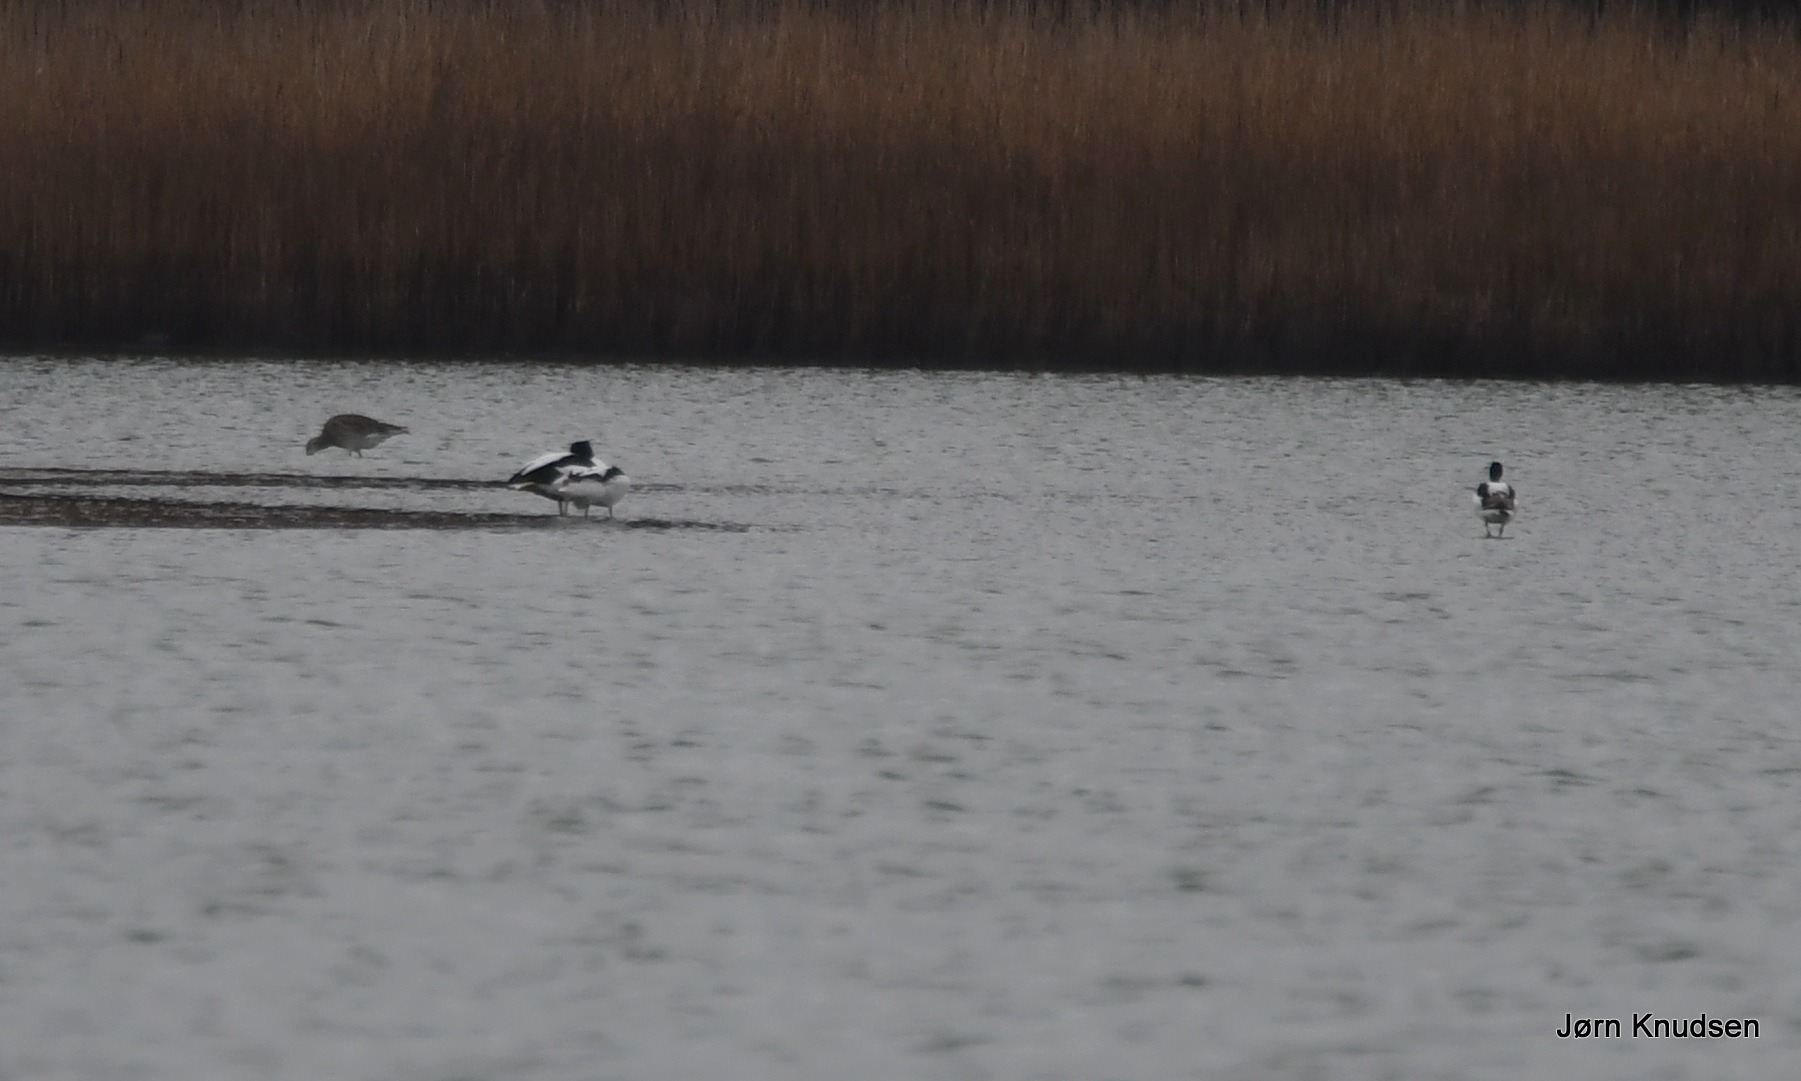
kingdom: Animalia
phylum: Chordata
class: Aves
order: Anseriformes
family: Anatidae
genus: Tadorna
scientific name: Tadorna tadorna
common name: Gravand
